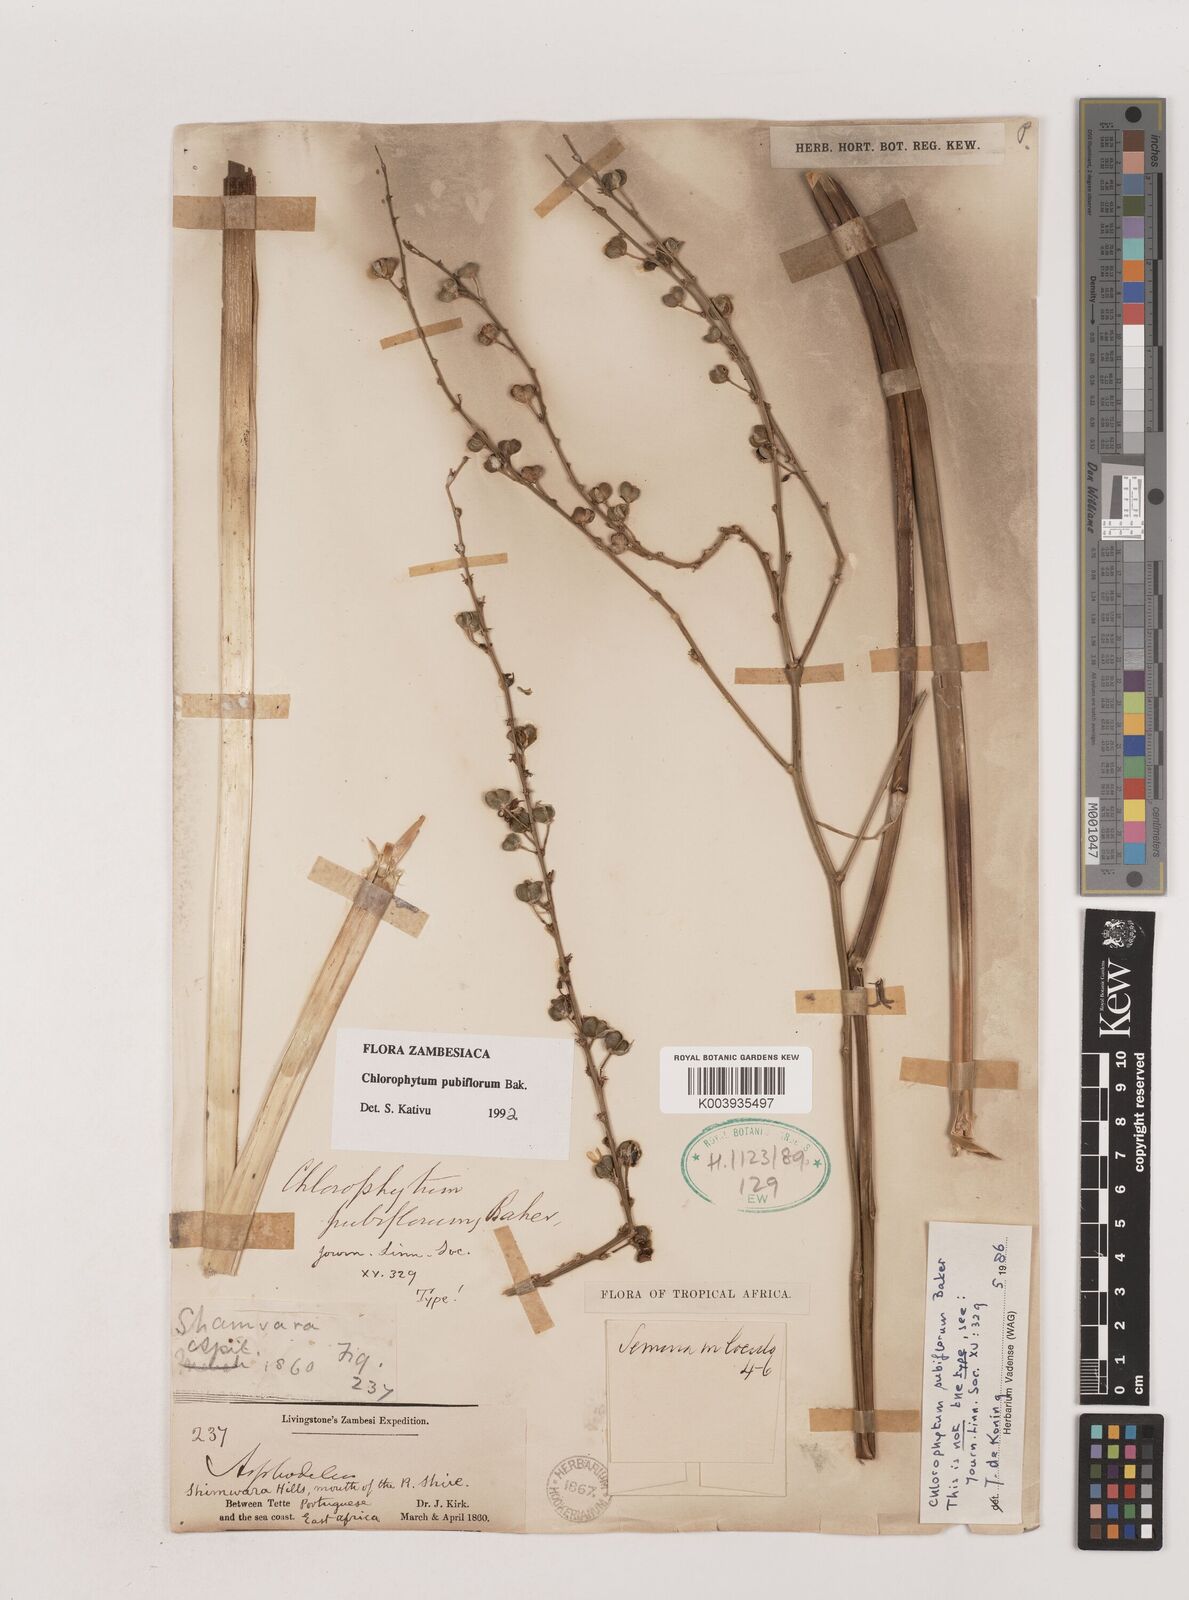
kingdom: Plantae
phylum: Tracheophyta
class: Liliopsida
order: Asparagales
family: Asparagaceae
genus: Chlorophytum
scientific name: Chlorophytum pubiflorum
